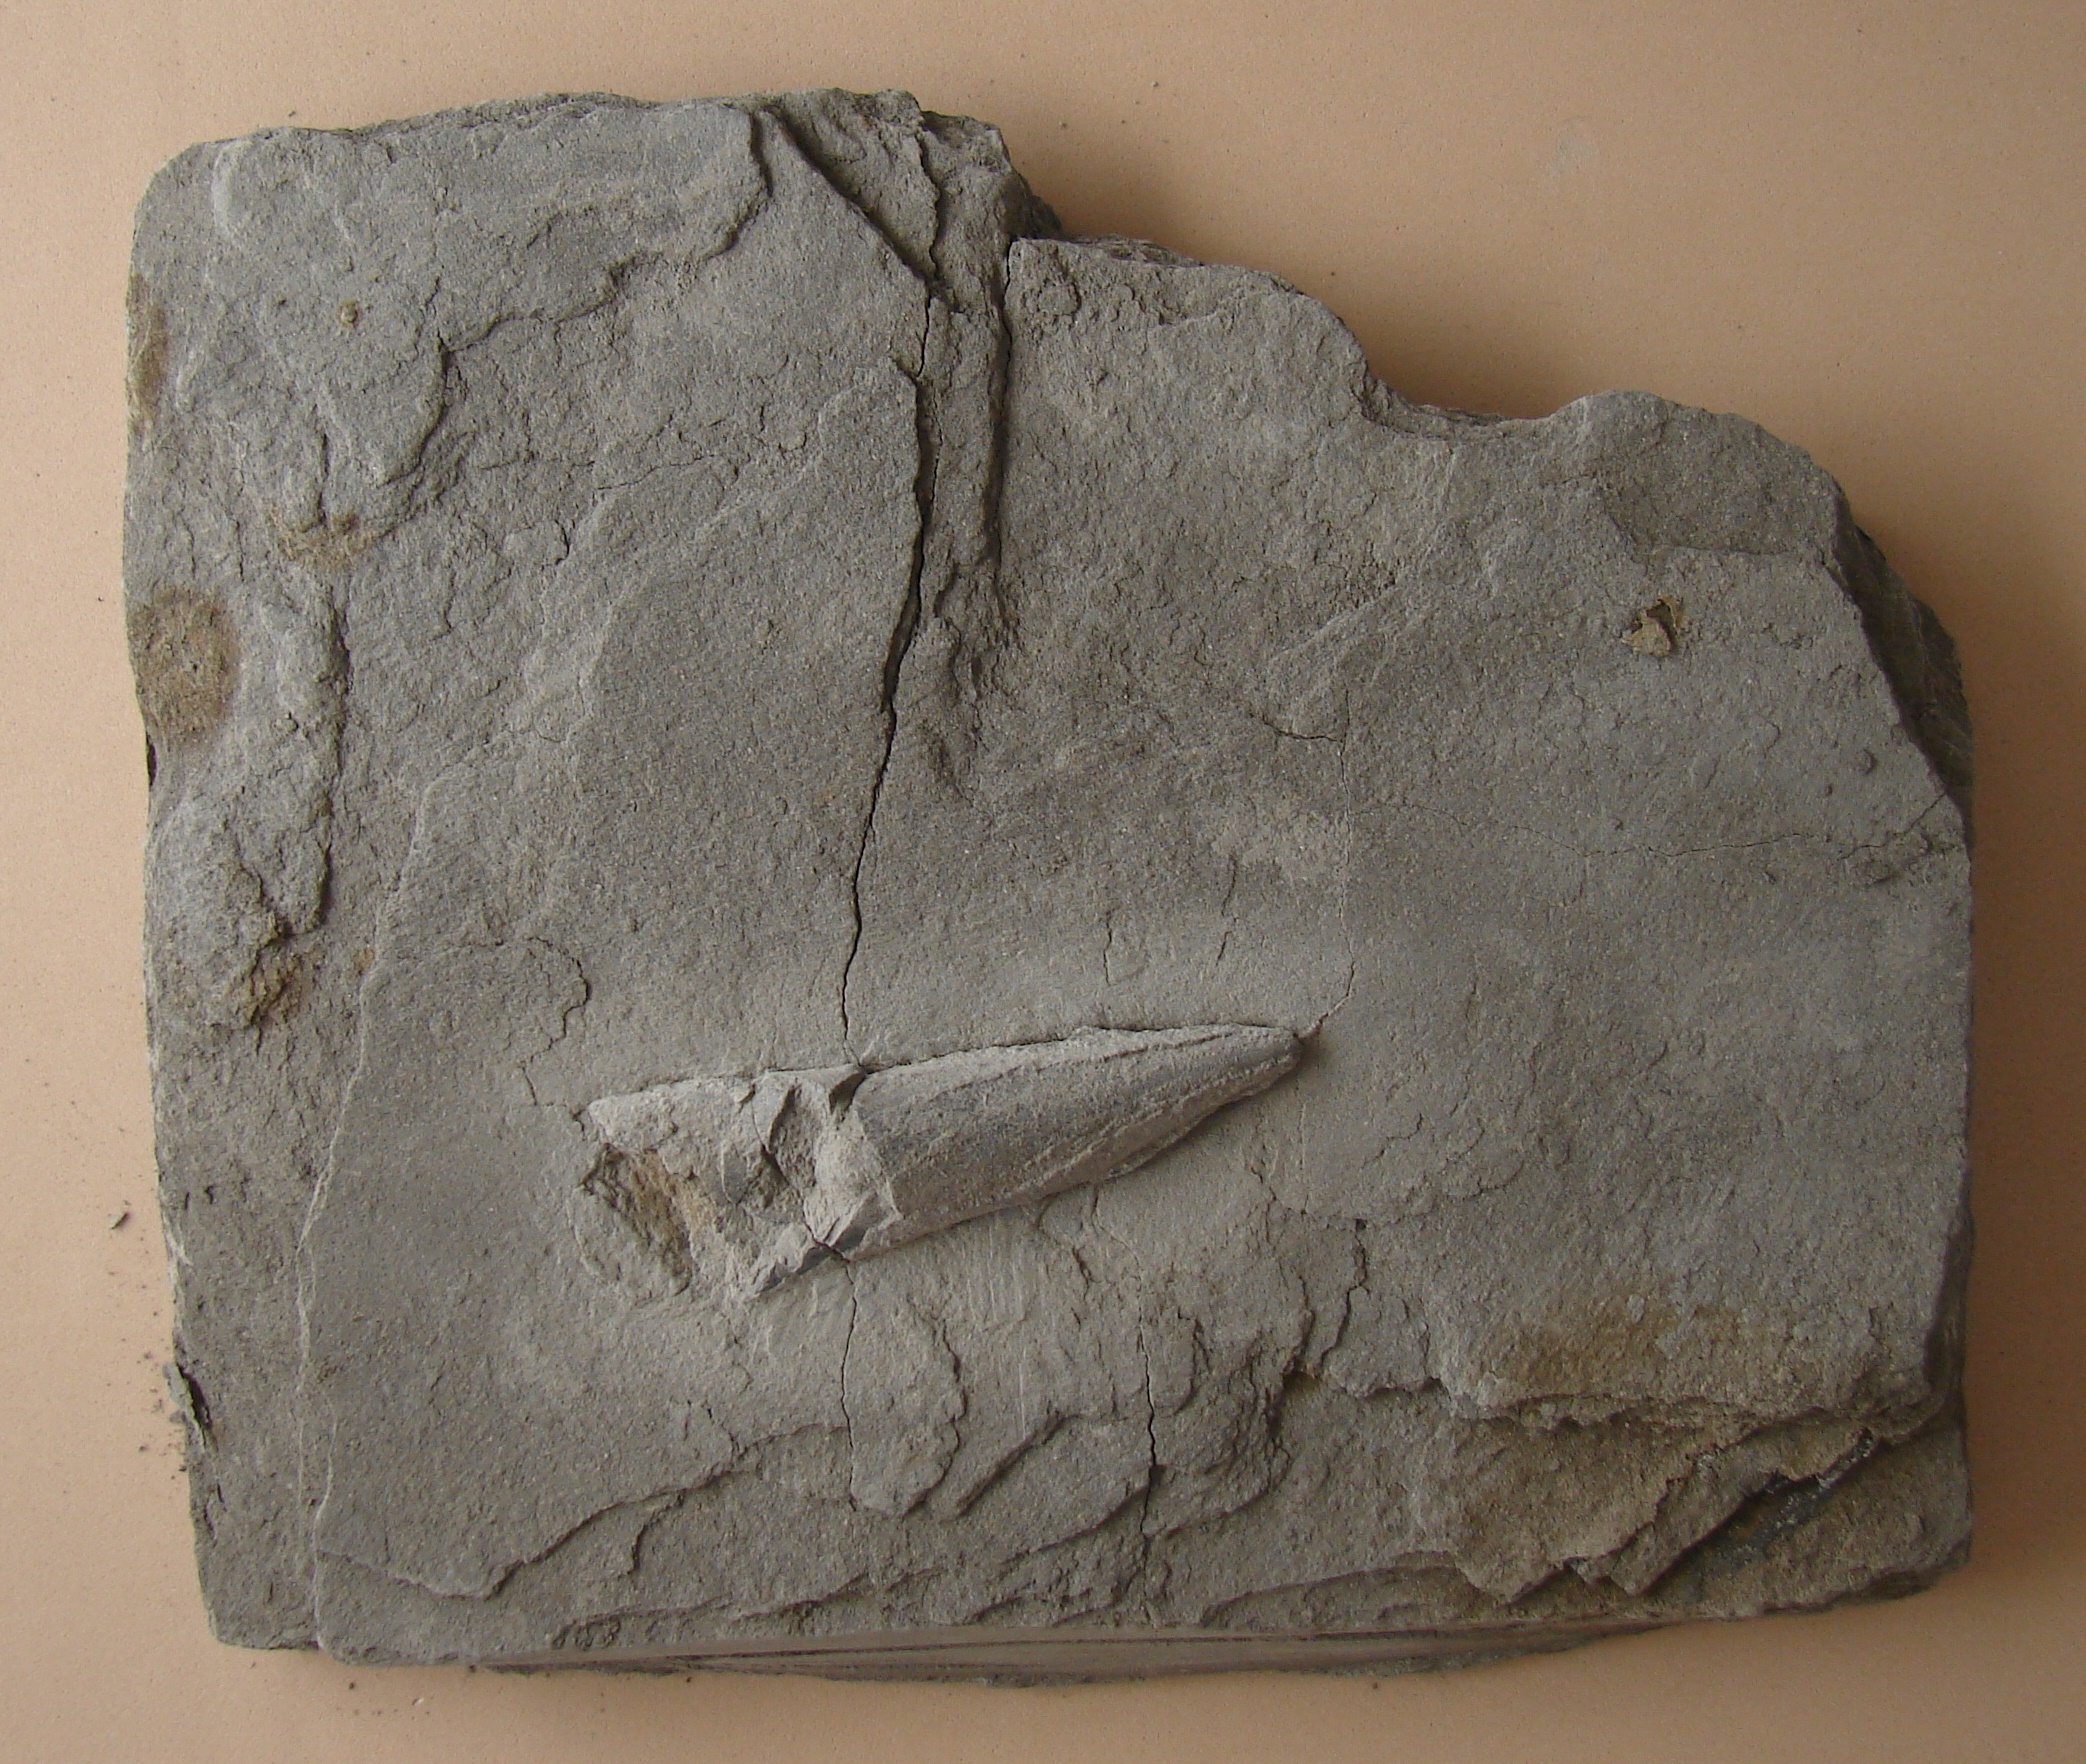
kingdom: Animalia
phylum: Mollusca
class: Cephalopoda
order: Belemnitida
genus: Nannobelus
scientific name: Nannobelus
